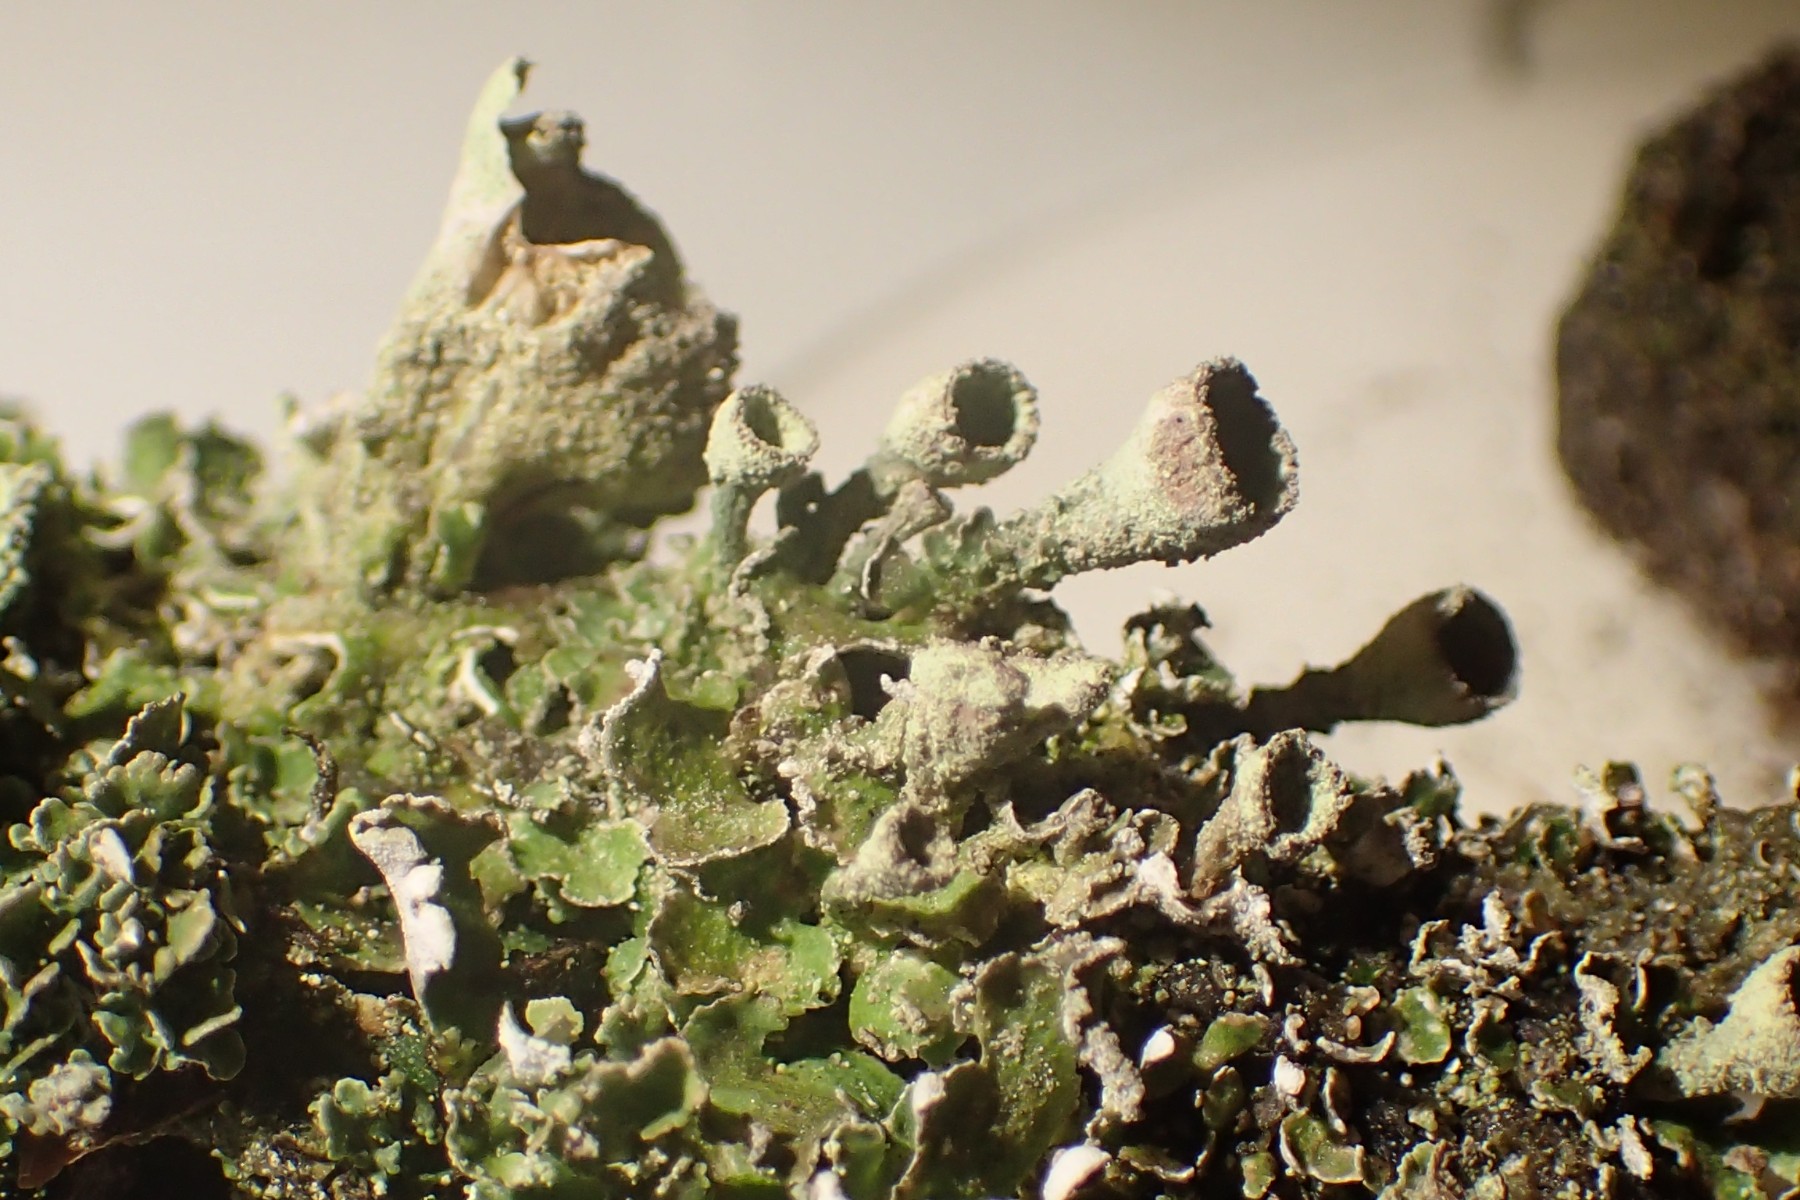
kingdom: Fungi
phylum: Ascomycota
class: Lecanoromycetes
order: Lecanorales
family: Cladoniaceae
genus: Cladonia
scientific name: Cladonia humilis
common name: lav bægerlav
